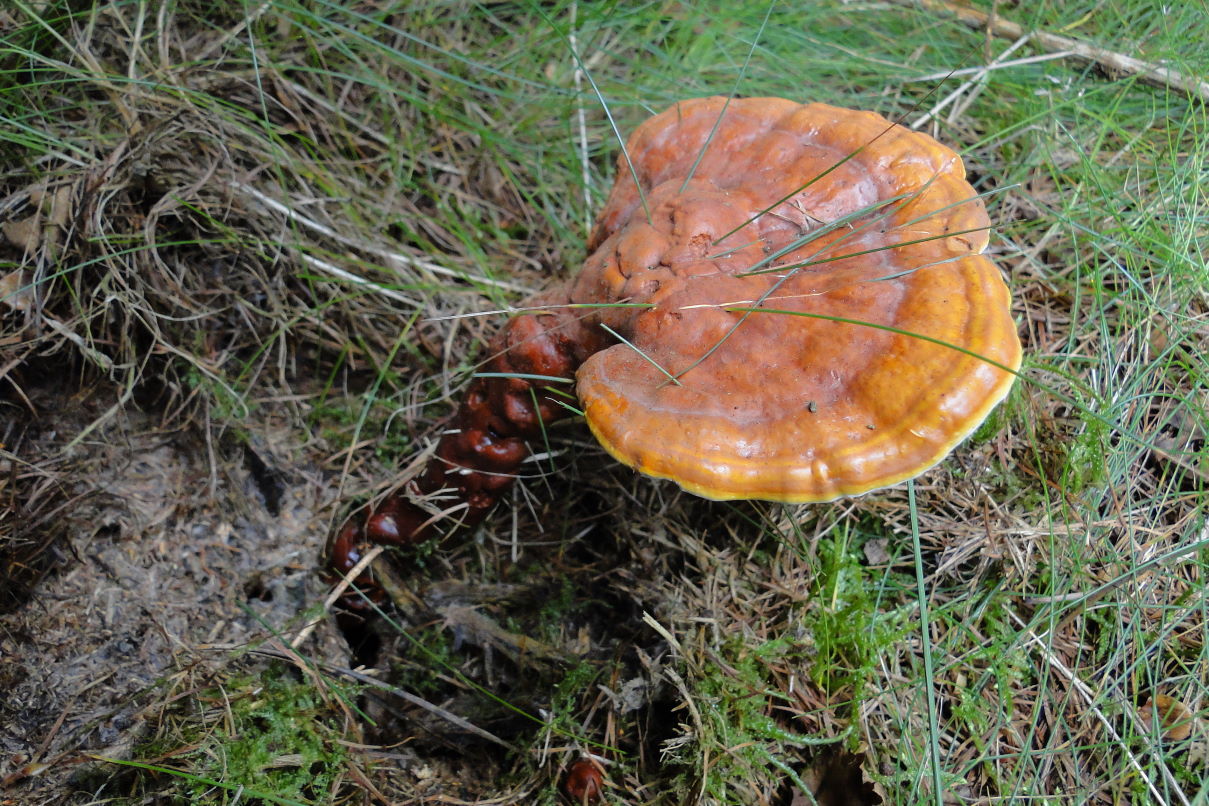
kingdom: Fungi
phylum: Basidiomycota
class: Agaricomycetes
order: Polyporales
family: Polyporaceae
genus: Ganoderma
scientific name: Ganoderma lucidum
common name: skinnende lakporesvamp
